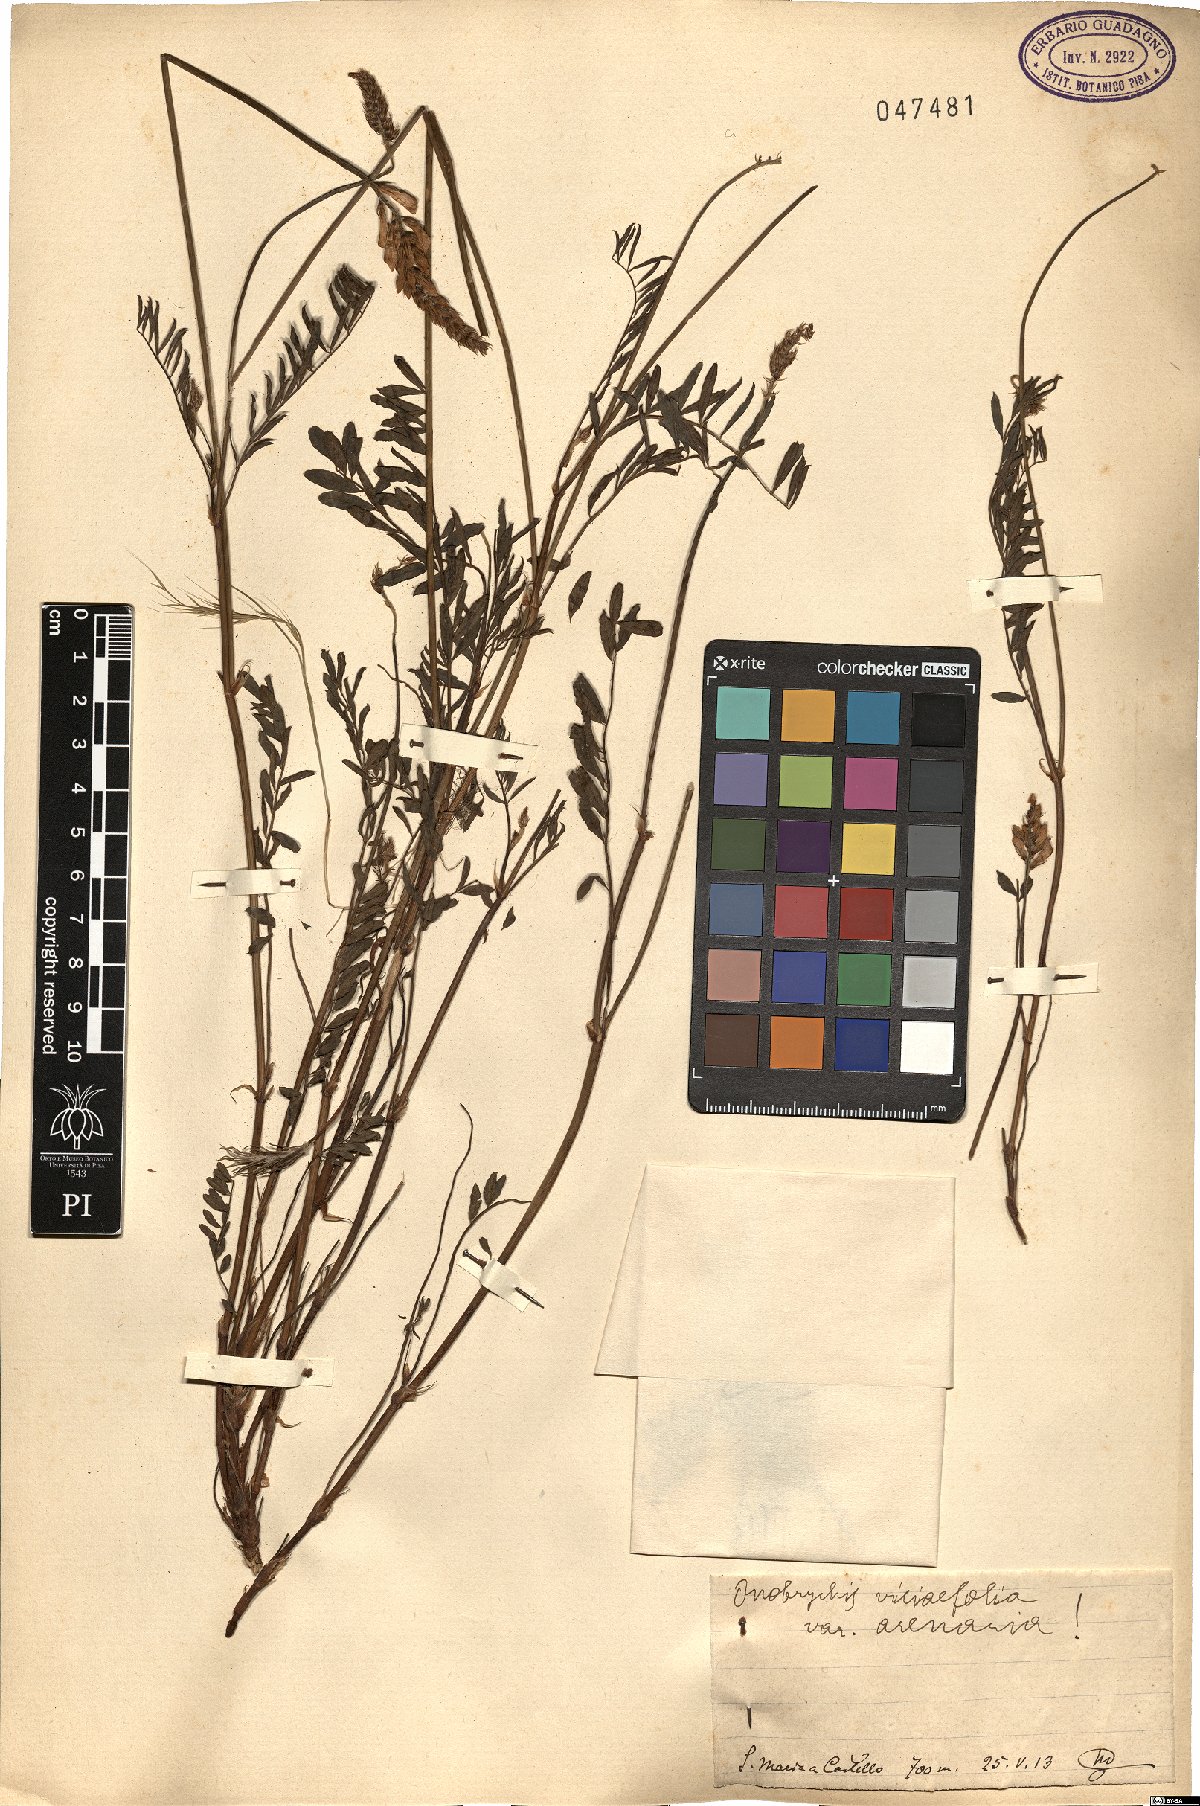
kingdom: Plantae
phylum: Tracheophyta
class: Magnoliopsida
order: Fabales
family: Fabaceae
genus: Onobrychis
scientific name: Onobrychis arenaria
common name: Sand esparcet
